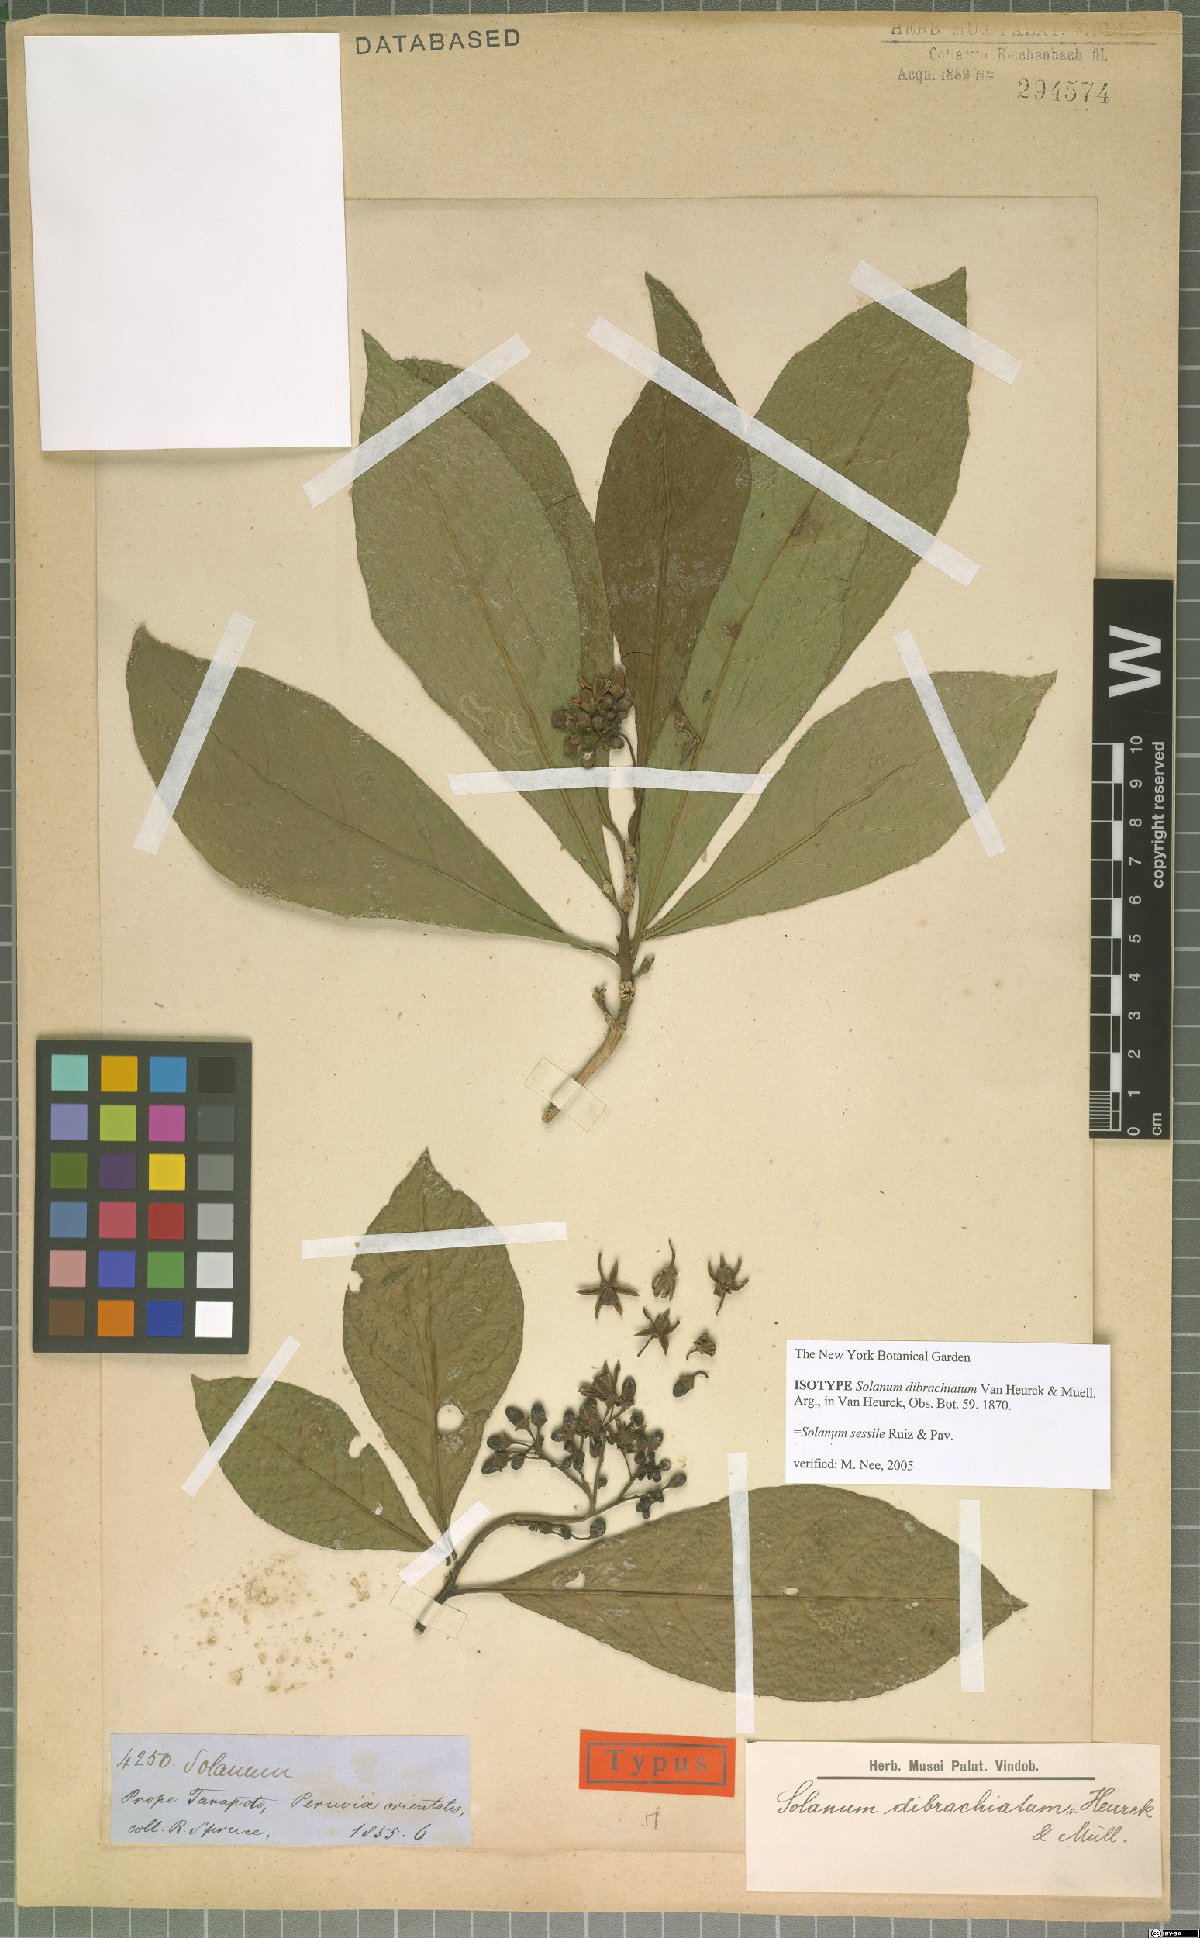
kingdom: Plantae
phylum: Tracheophyta
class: Magnoliopsida
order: Solanales
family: Solanaceae
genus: Solanum
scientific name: Solanum sessile
